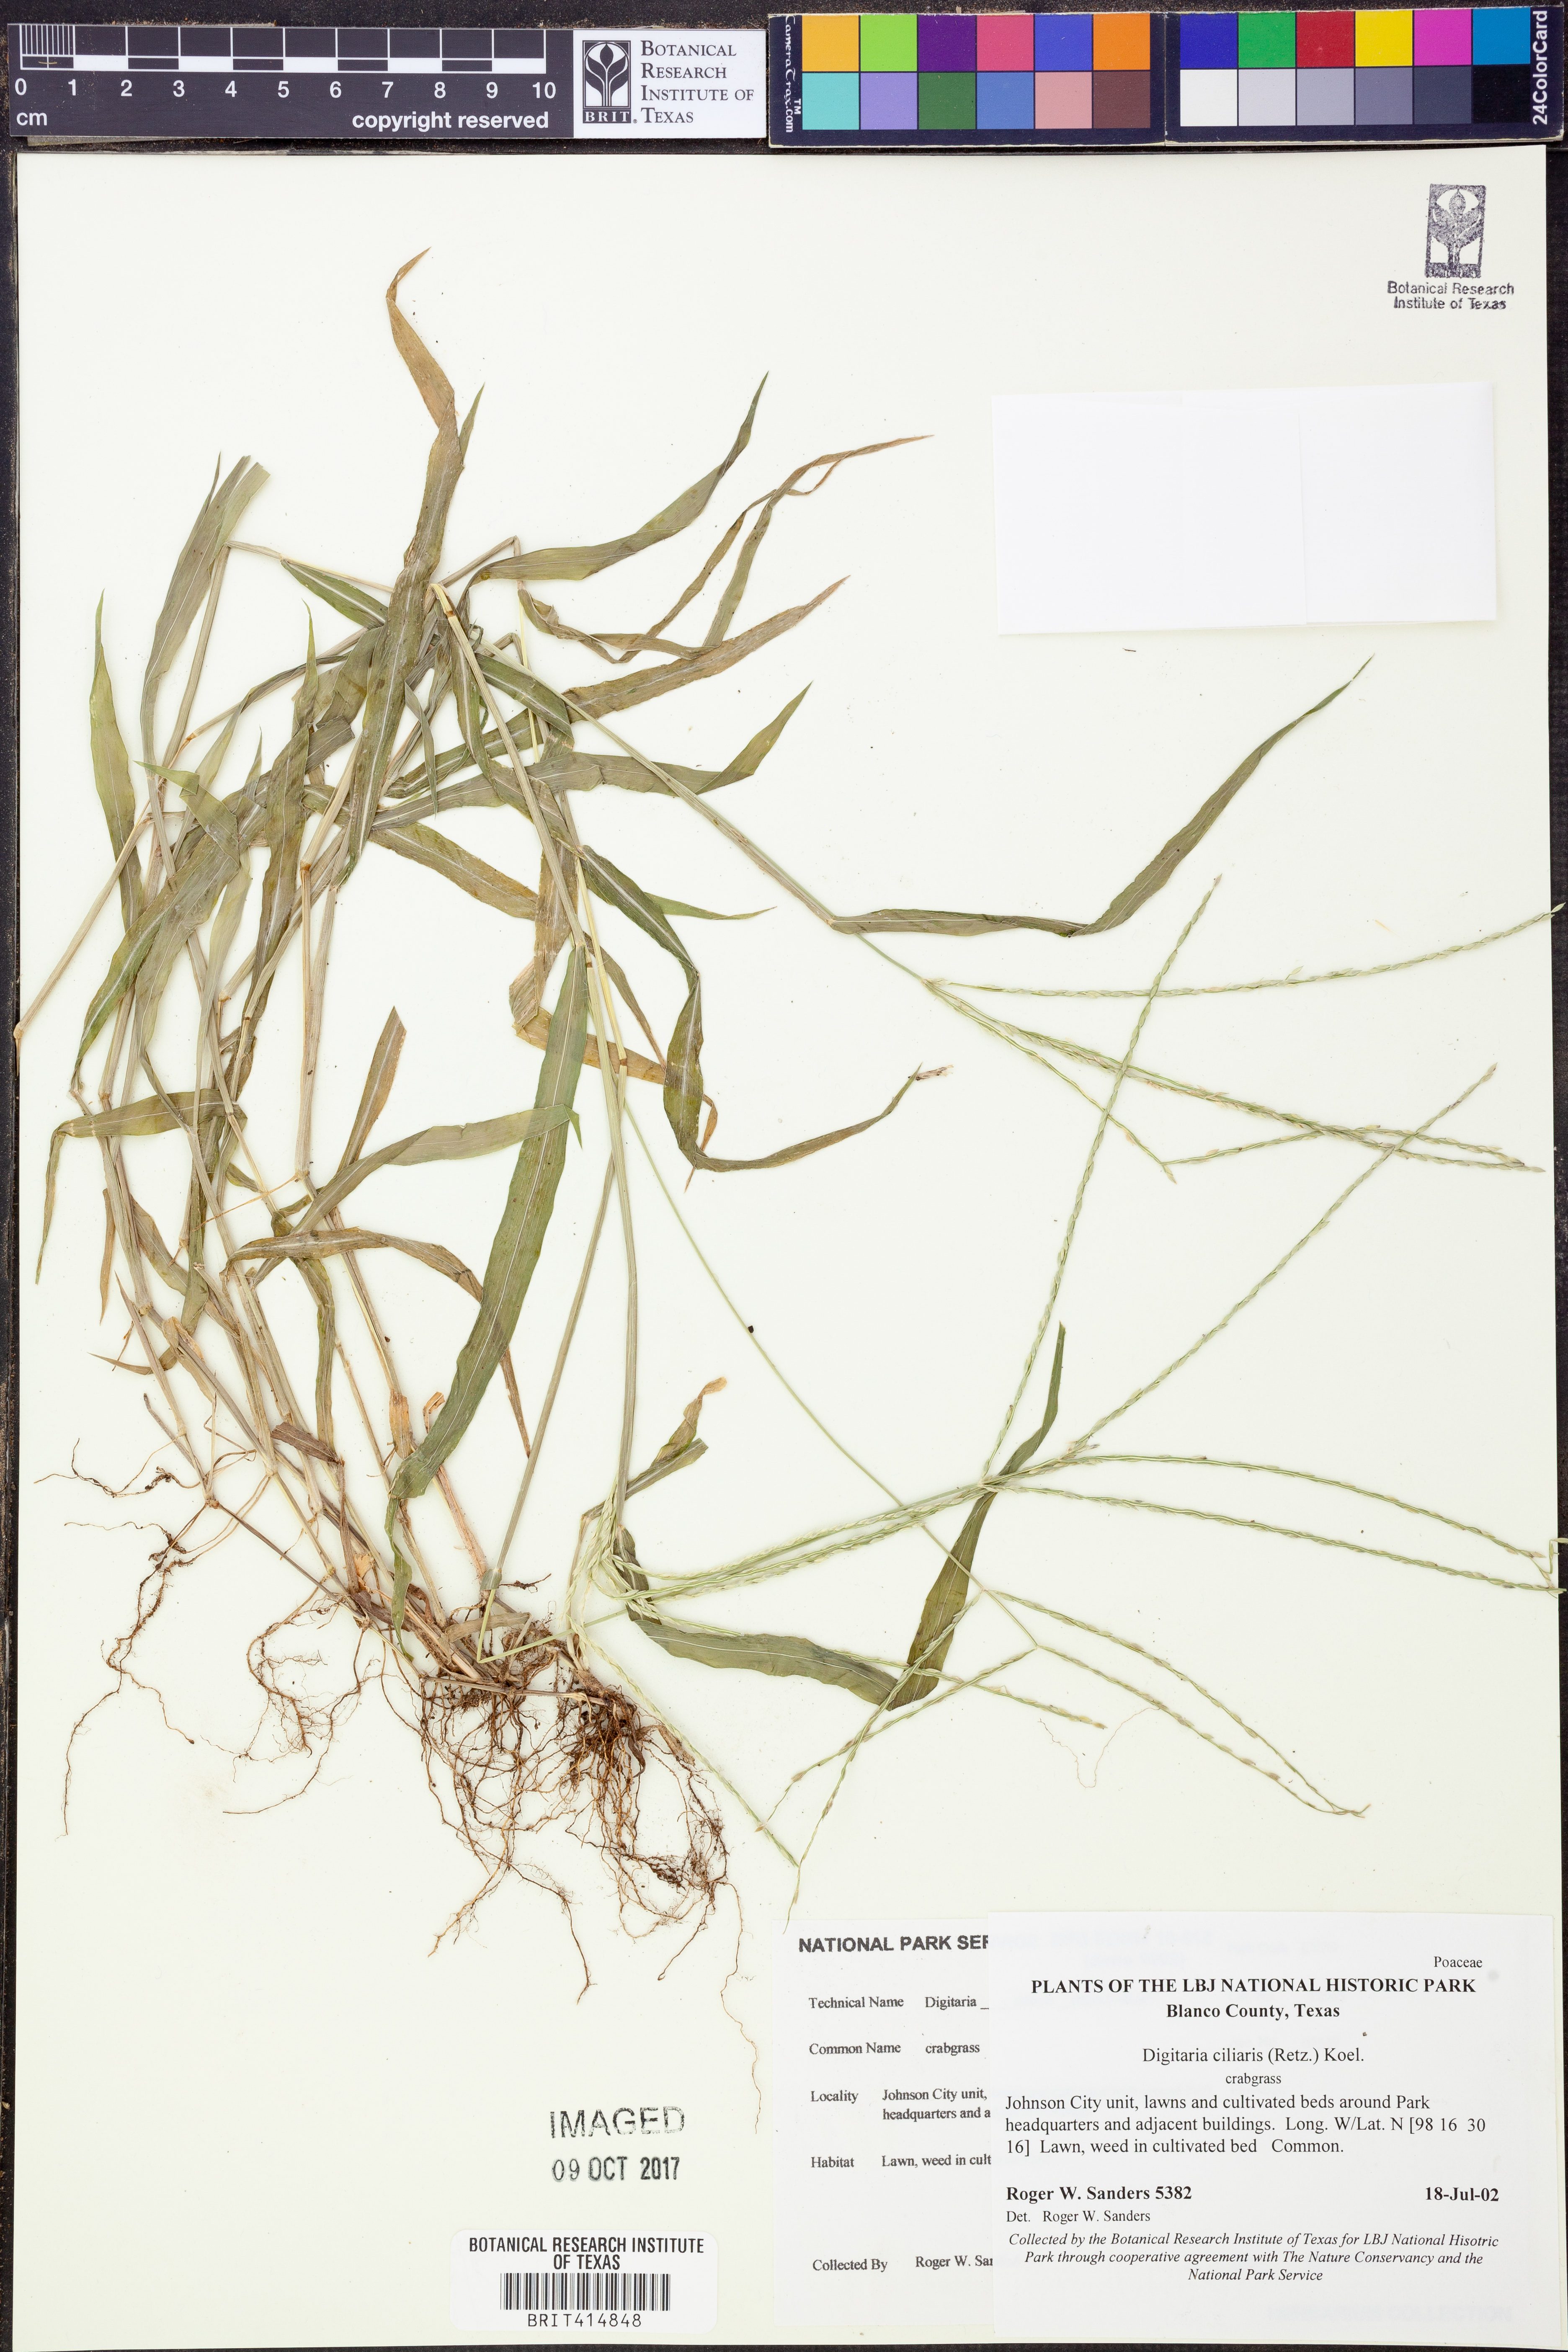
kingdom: Plantae
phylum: Tracheophyta
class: Liliopsida
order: Poales
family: Poaceae
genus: Digitaria
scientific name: Digitaria ciliaris
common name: Tropical finger-grass
